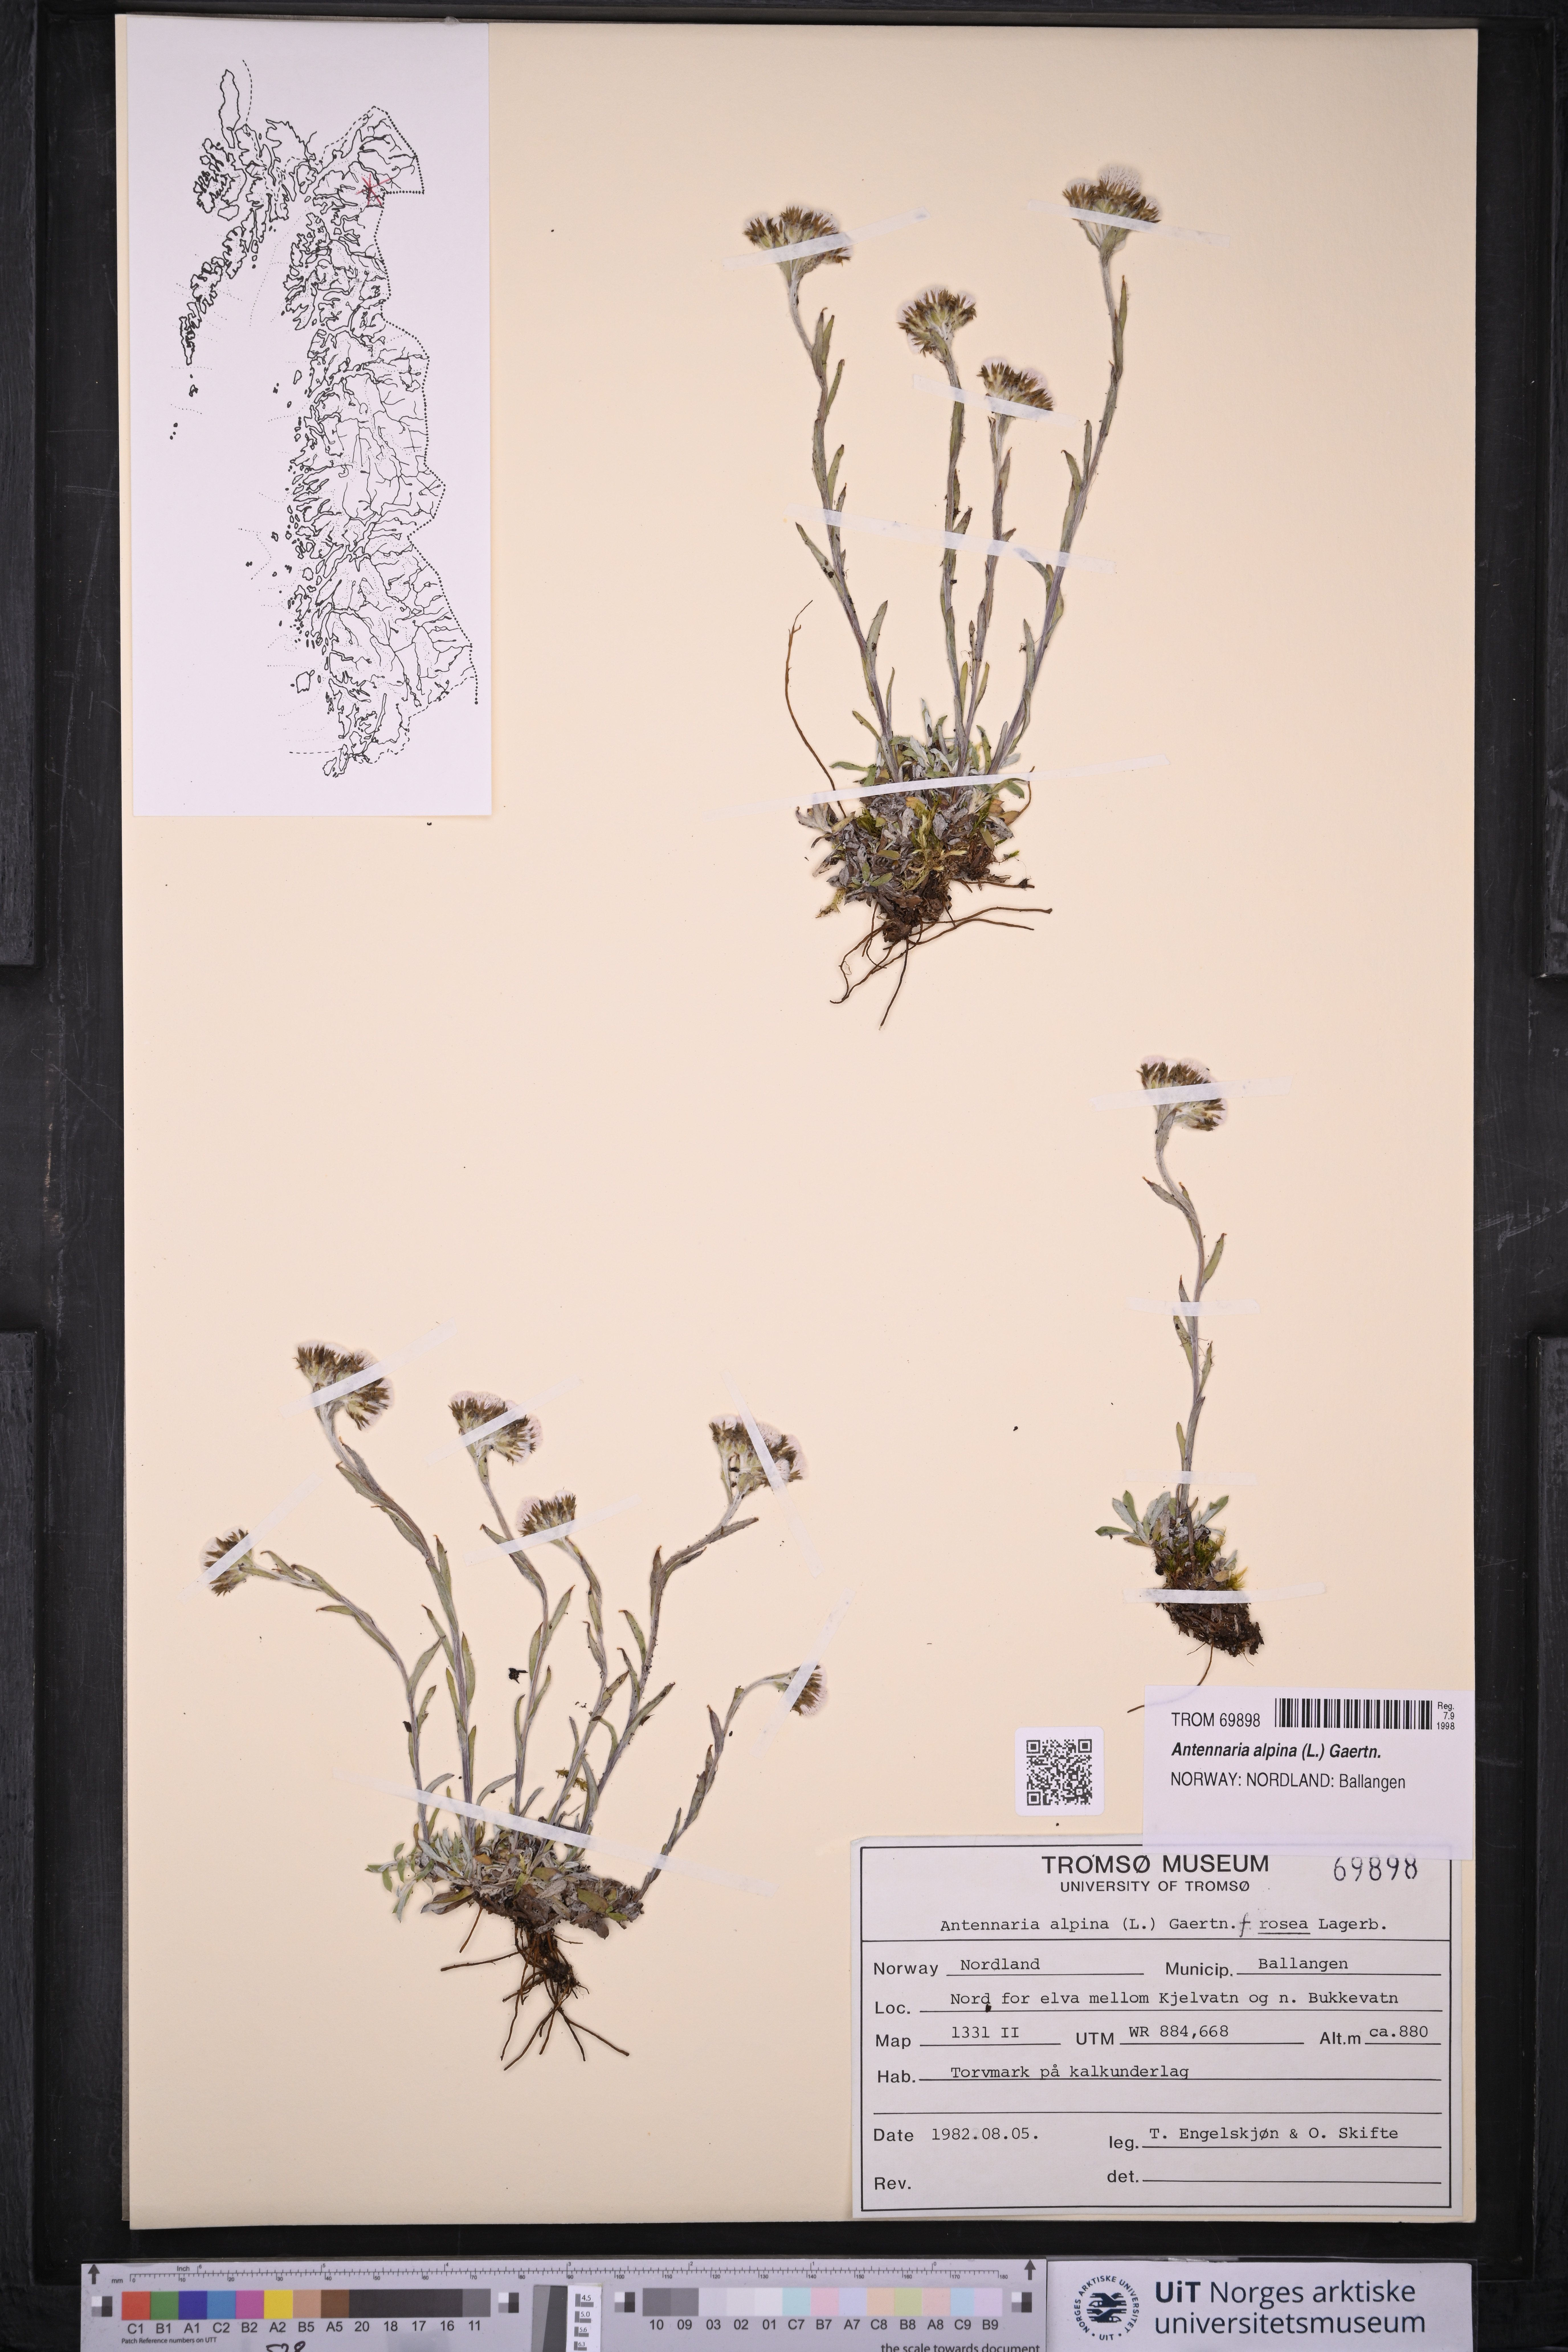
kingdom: Plantae
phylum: Tracheophyta
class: Magnoliopsida
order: Asterales
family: Asteraceae
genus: Antennaria
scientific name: Antennaria alpina
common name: Alpine pussytoes
